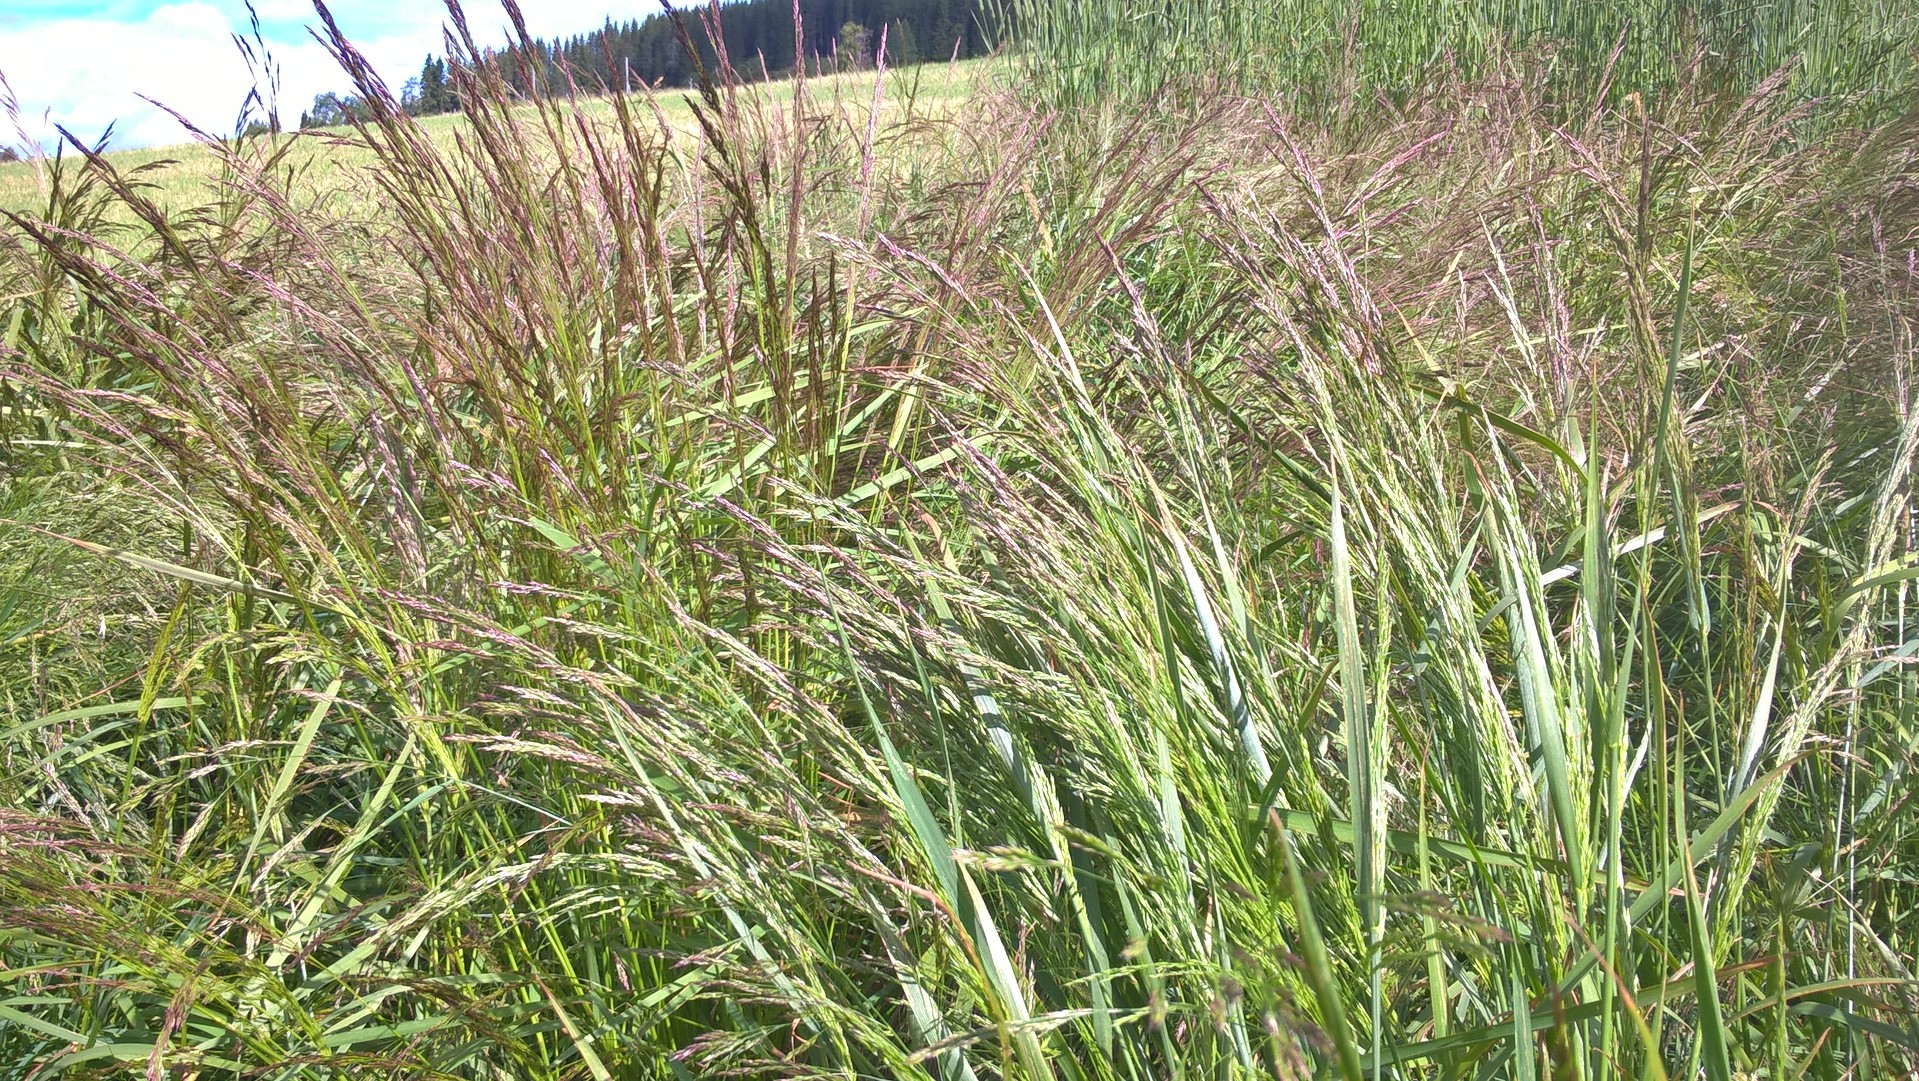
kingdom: Plantae
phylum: Tracheophyta
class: Liliopsida
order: Poales
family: Poaceae
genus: Agrostis
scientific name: Agrostis capillaris
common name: Colonial bentgrass
